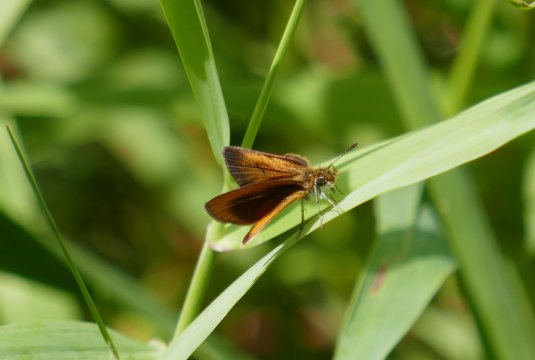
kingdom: Animalia
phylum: Arthropoda
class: Insecta
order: Lepidoptera
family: Hesperiidae
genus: Ancyloxypha
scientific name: Ancyloxypha numitor
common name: Least Skipper
